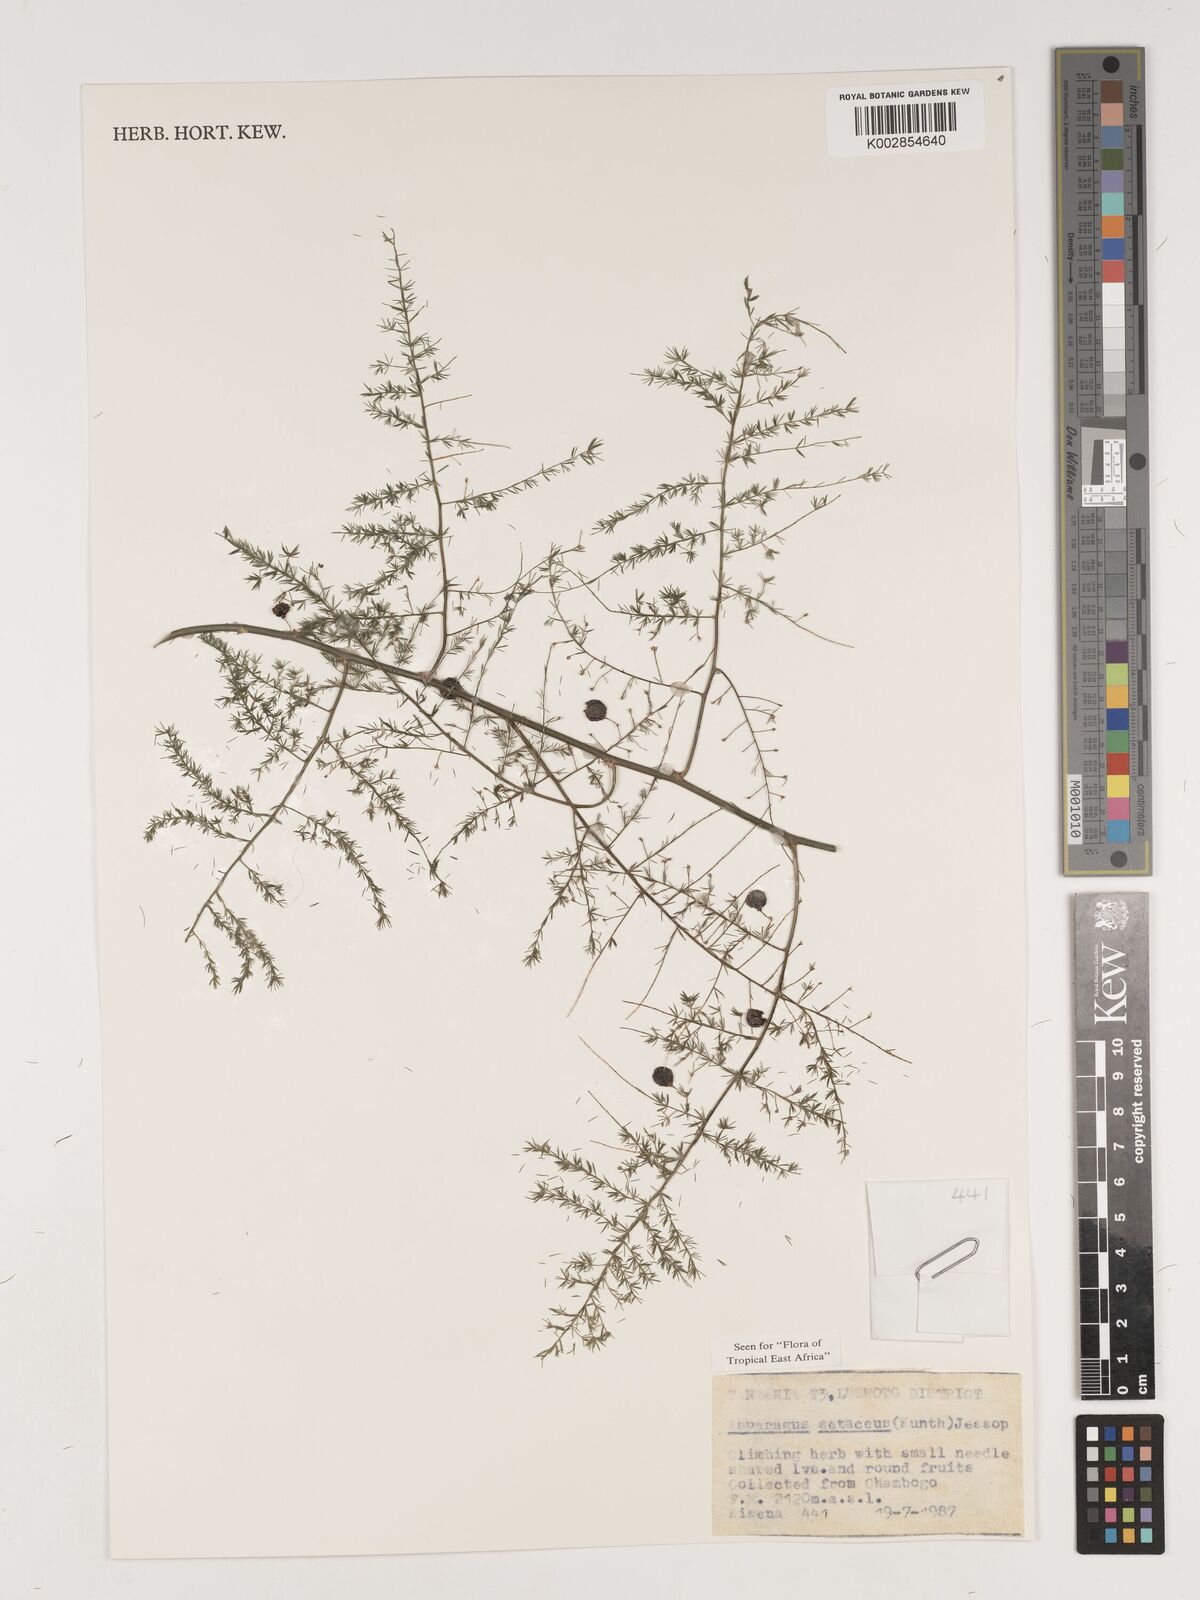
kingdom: Plantae
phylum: Tracheophyta
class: Liliopsida
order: Asparagales
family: Asparagaceae
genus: Asparagus
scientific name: Asparagus setaceus
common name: Common asparagus fern
